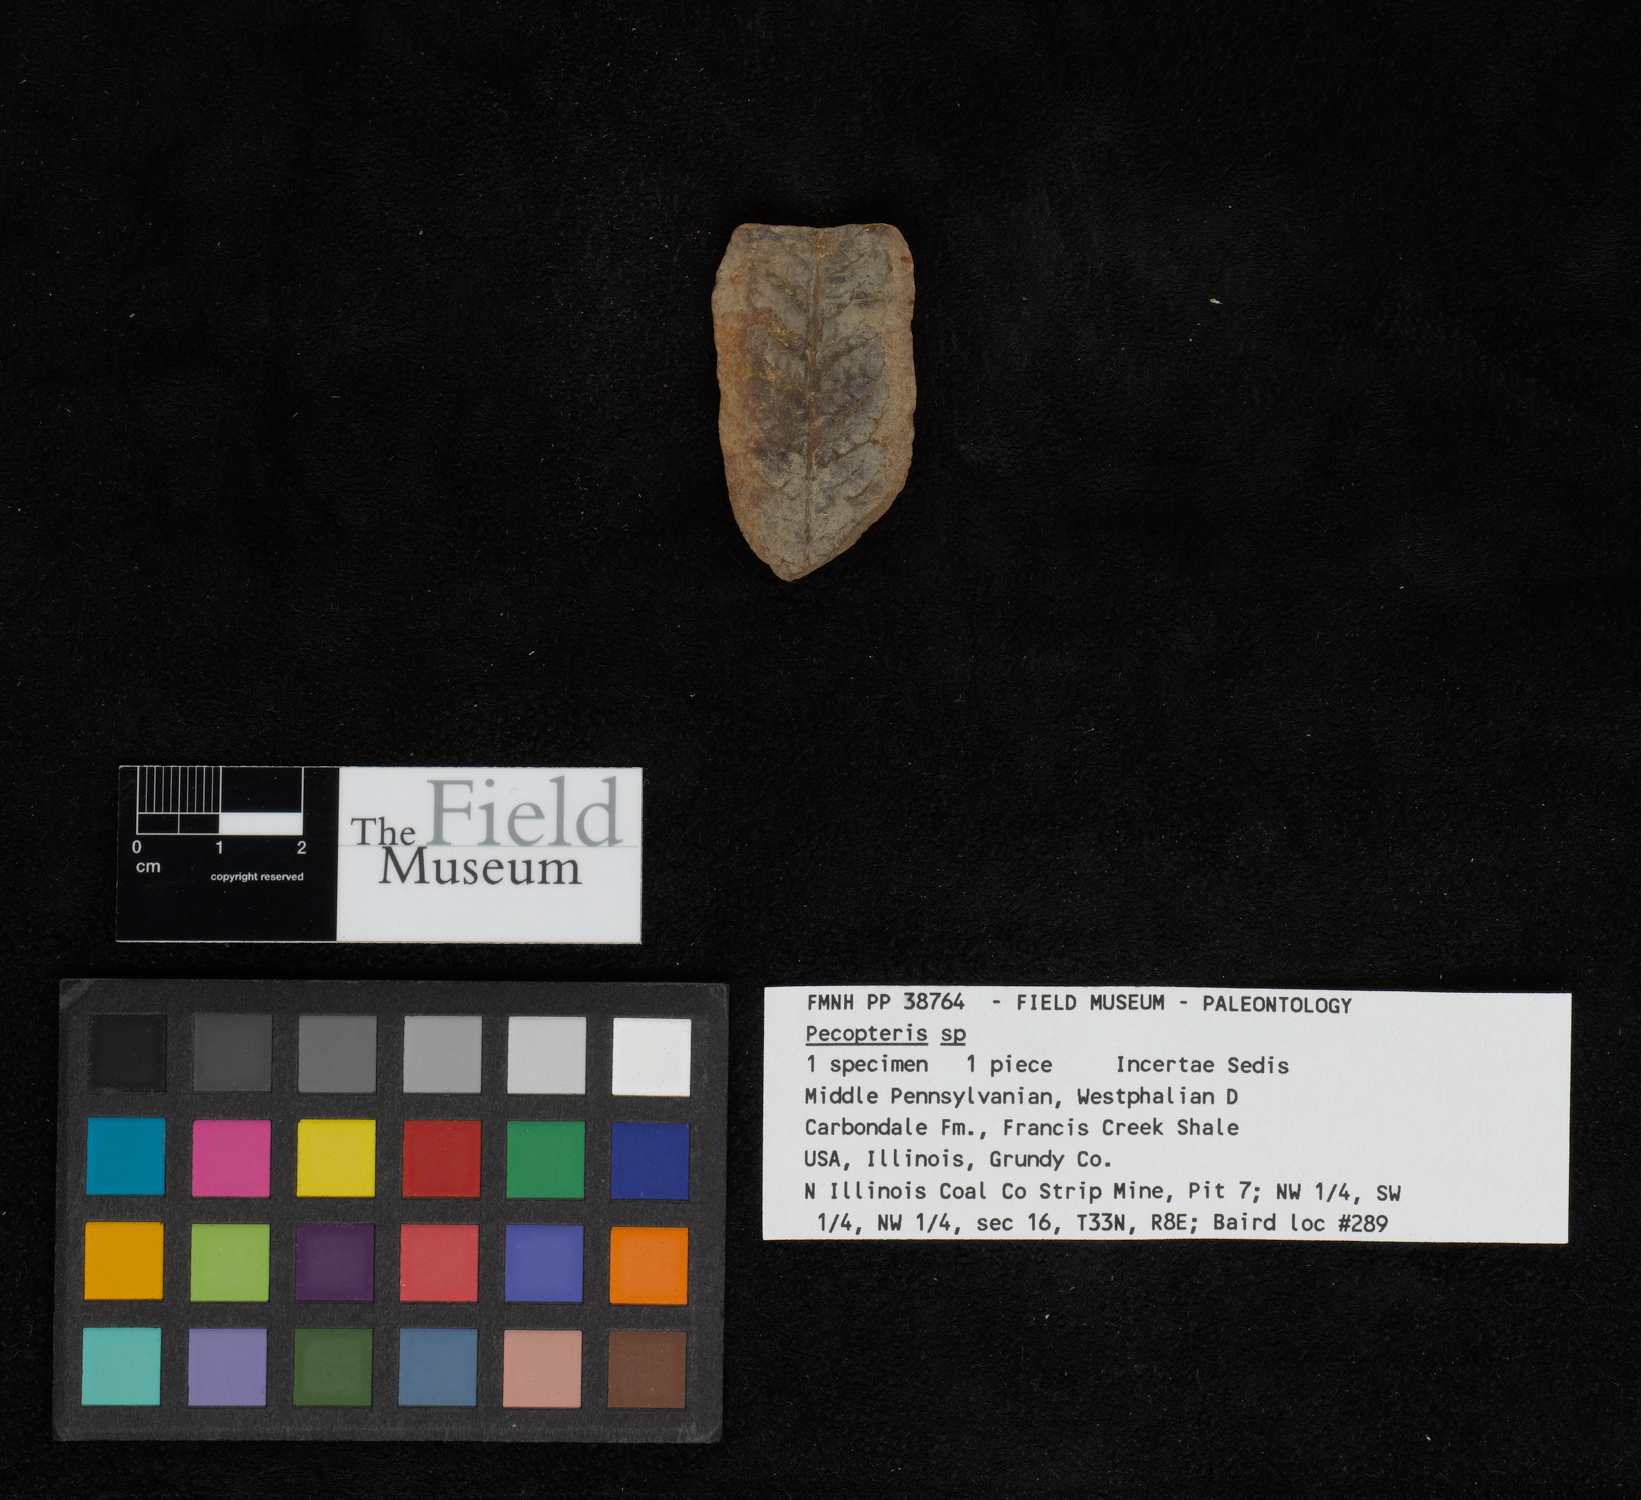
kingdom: Plantae
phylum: Tracheophyta
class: Polypodiopsida
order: Marattiales
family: Asterothecaceae
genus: Pecopteris
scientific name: Pecopteris
